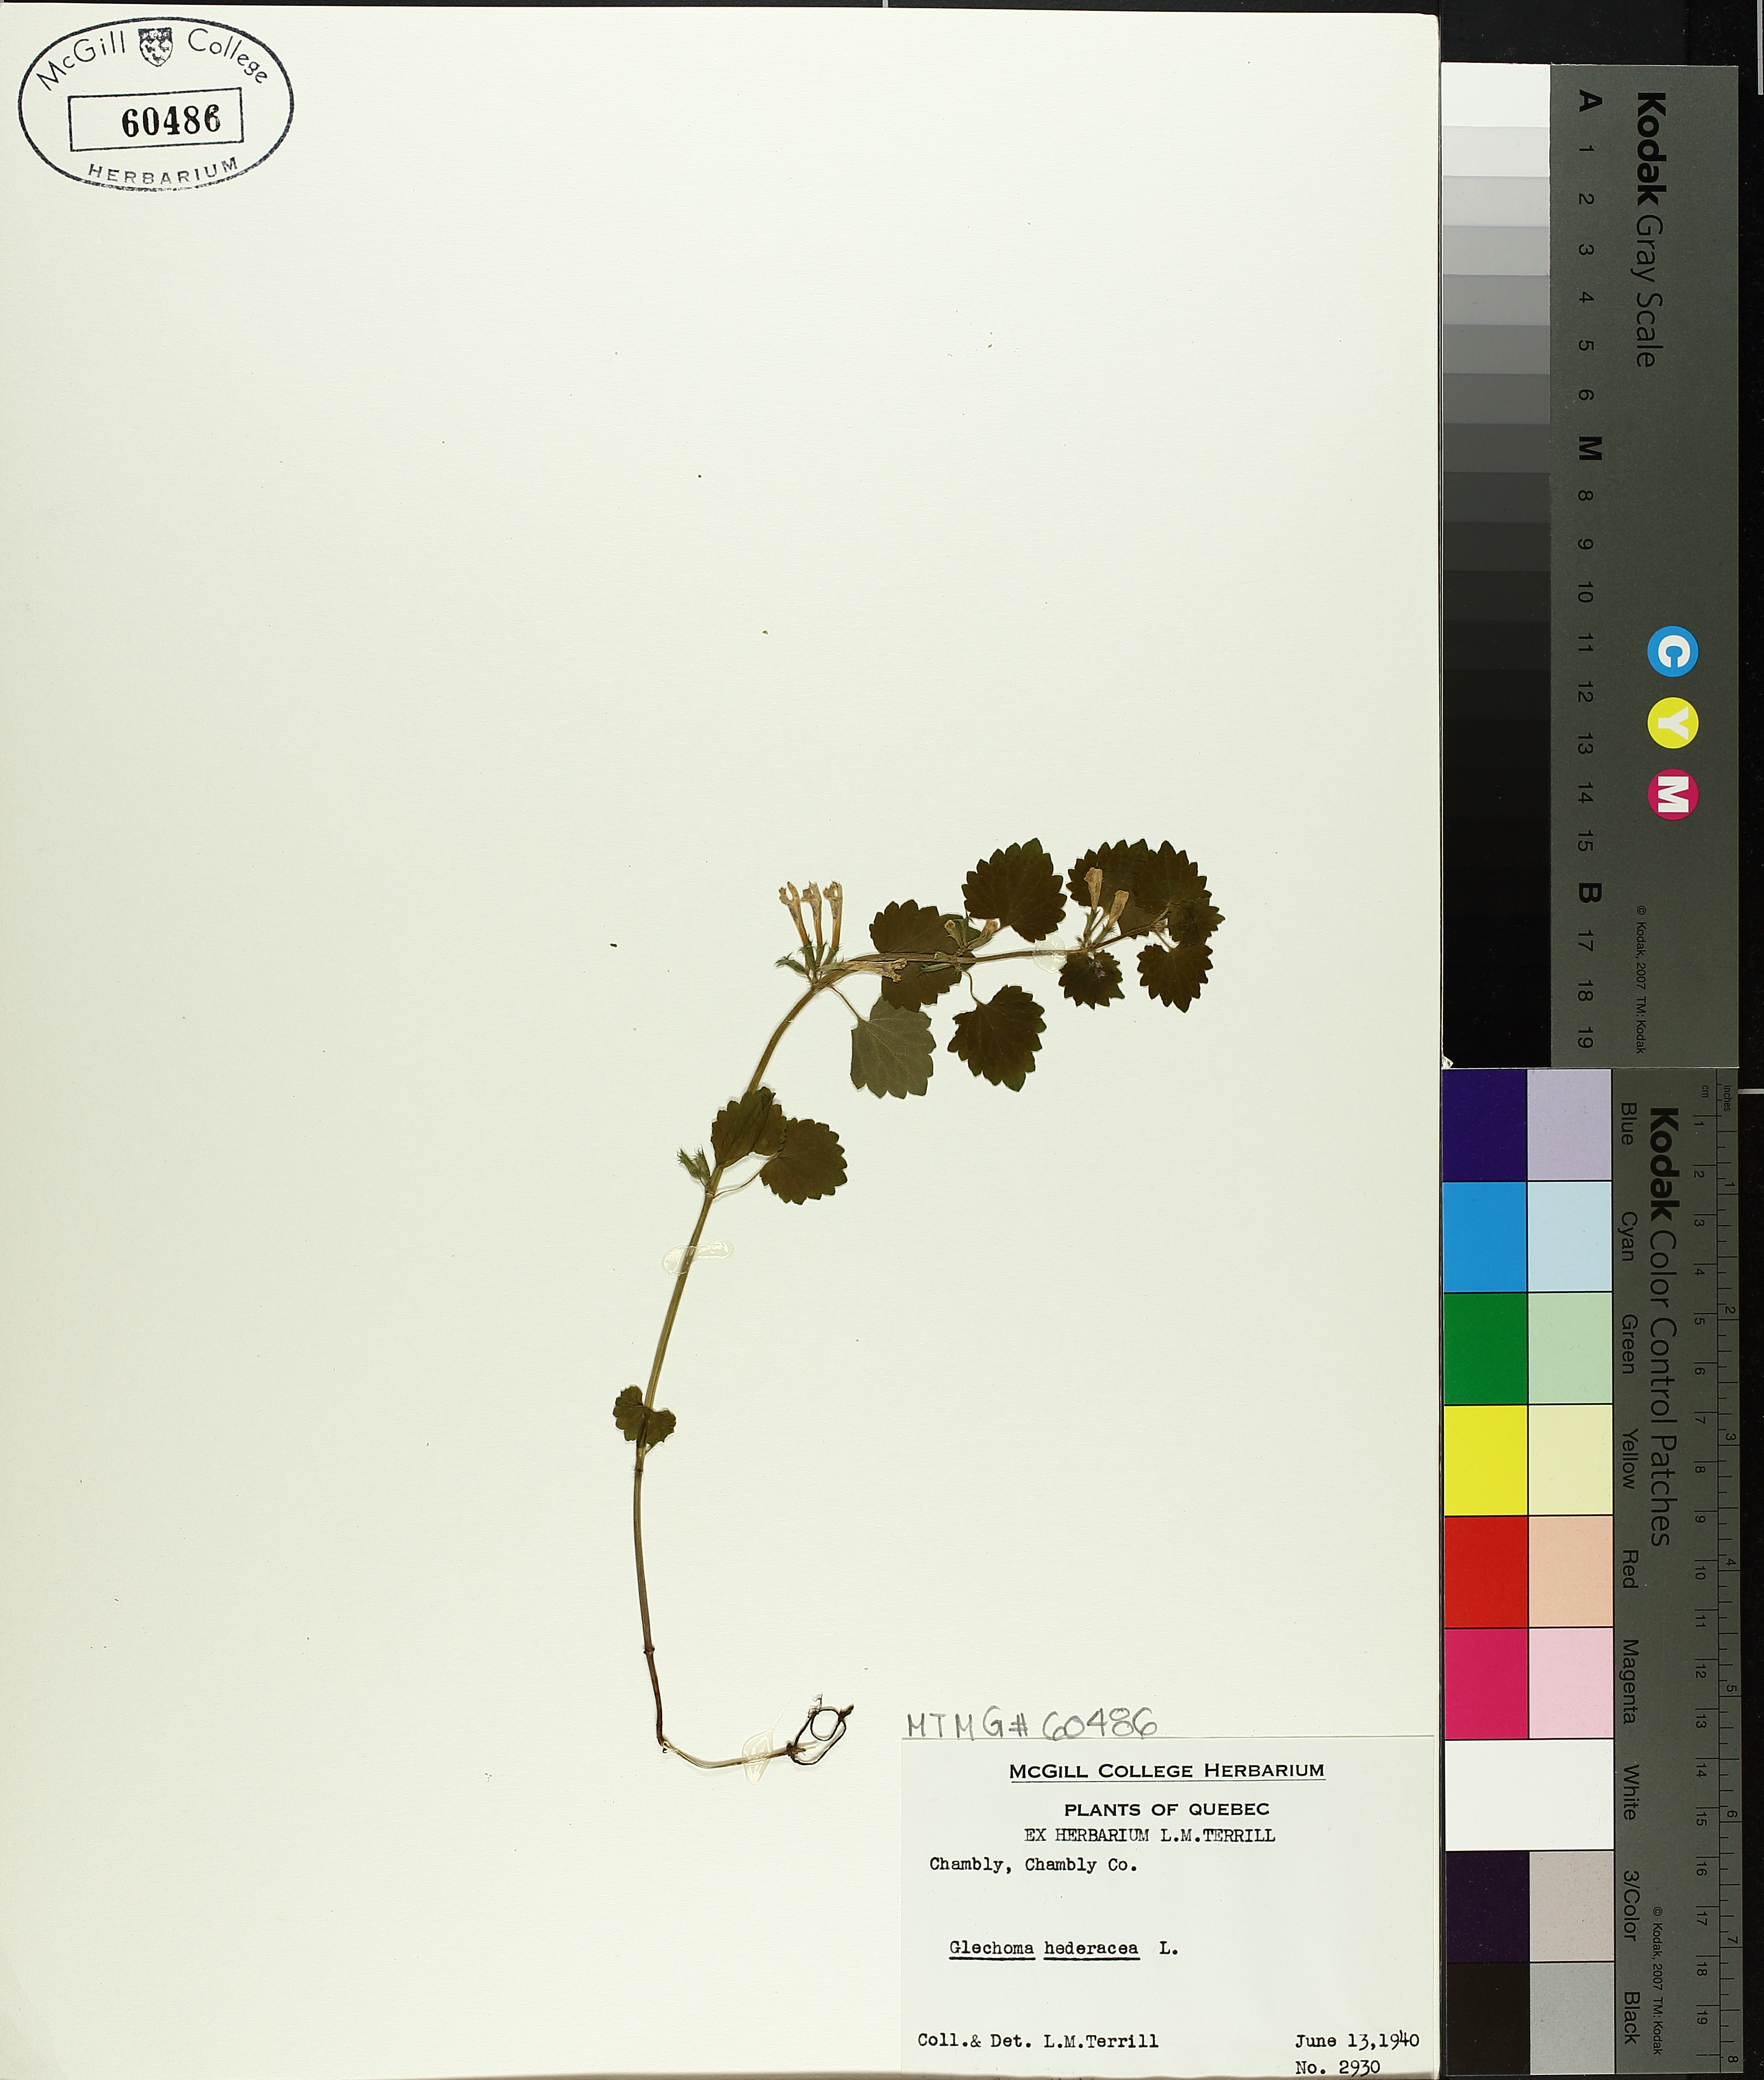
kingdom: Plantae
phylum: Tracheophyta
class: Magnoliopsida
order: Lamiales
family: Lamiaceae
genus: Glechoma
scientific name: Glechoma hederacea
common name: Ground ivy
